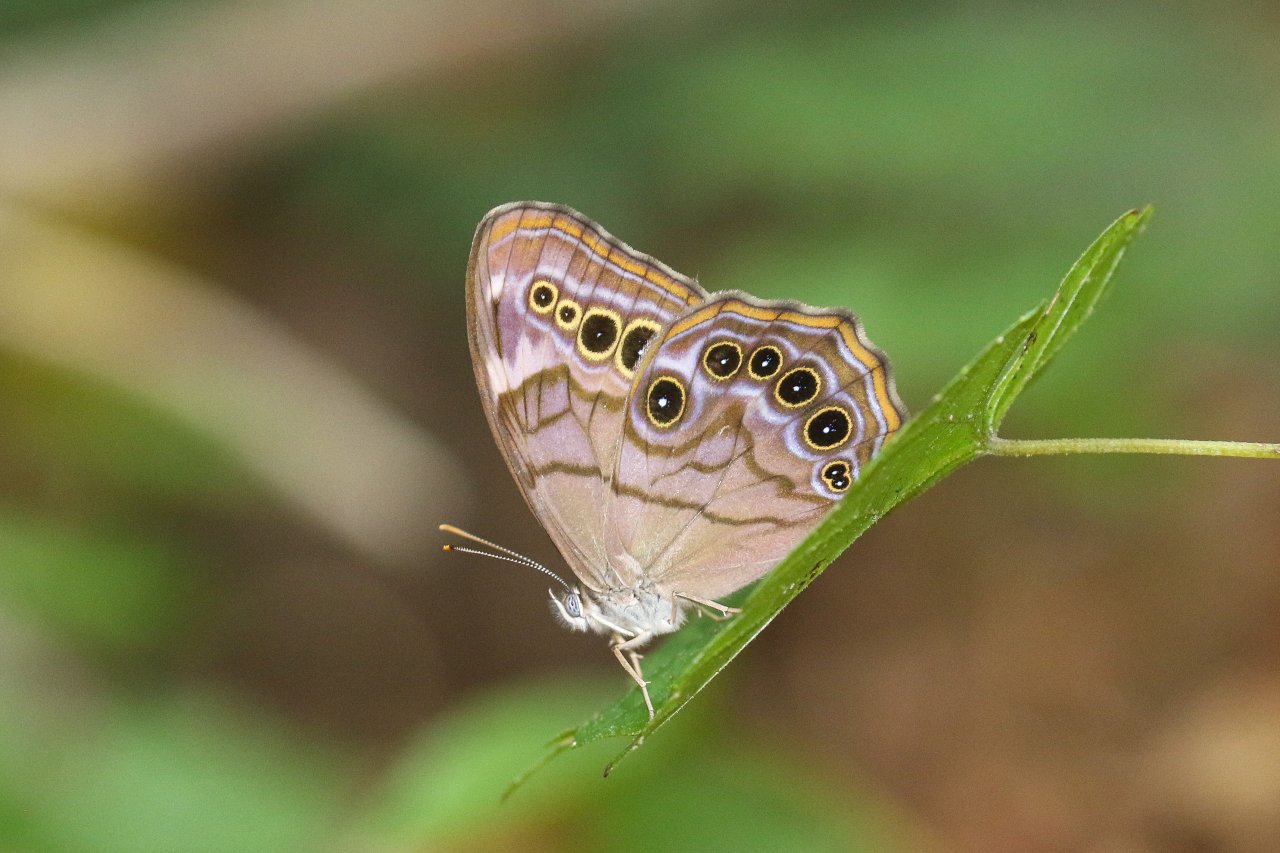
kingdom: Animalia
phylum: Arthropoda
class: Insecta
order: Lepidoptera
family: Nymphalidae
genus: Lethe
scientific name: Lethe anthedon
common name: Northern Pearly-Eye
